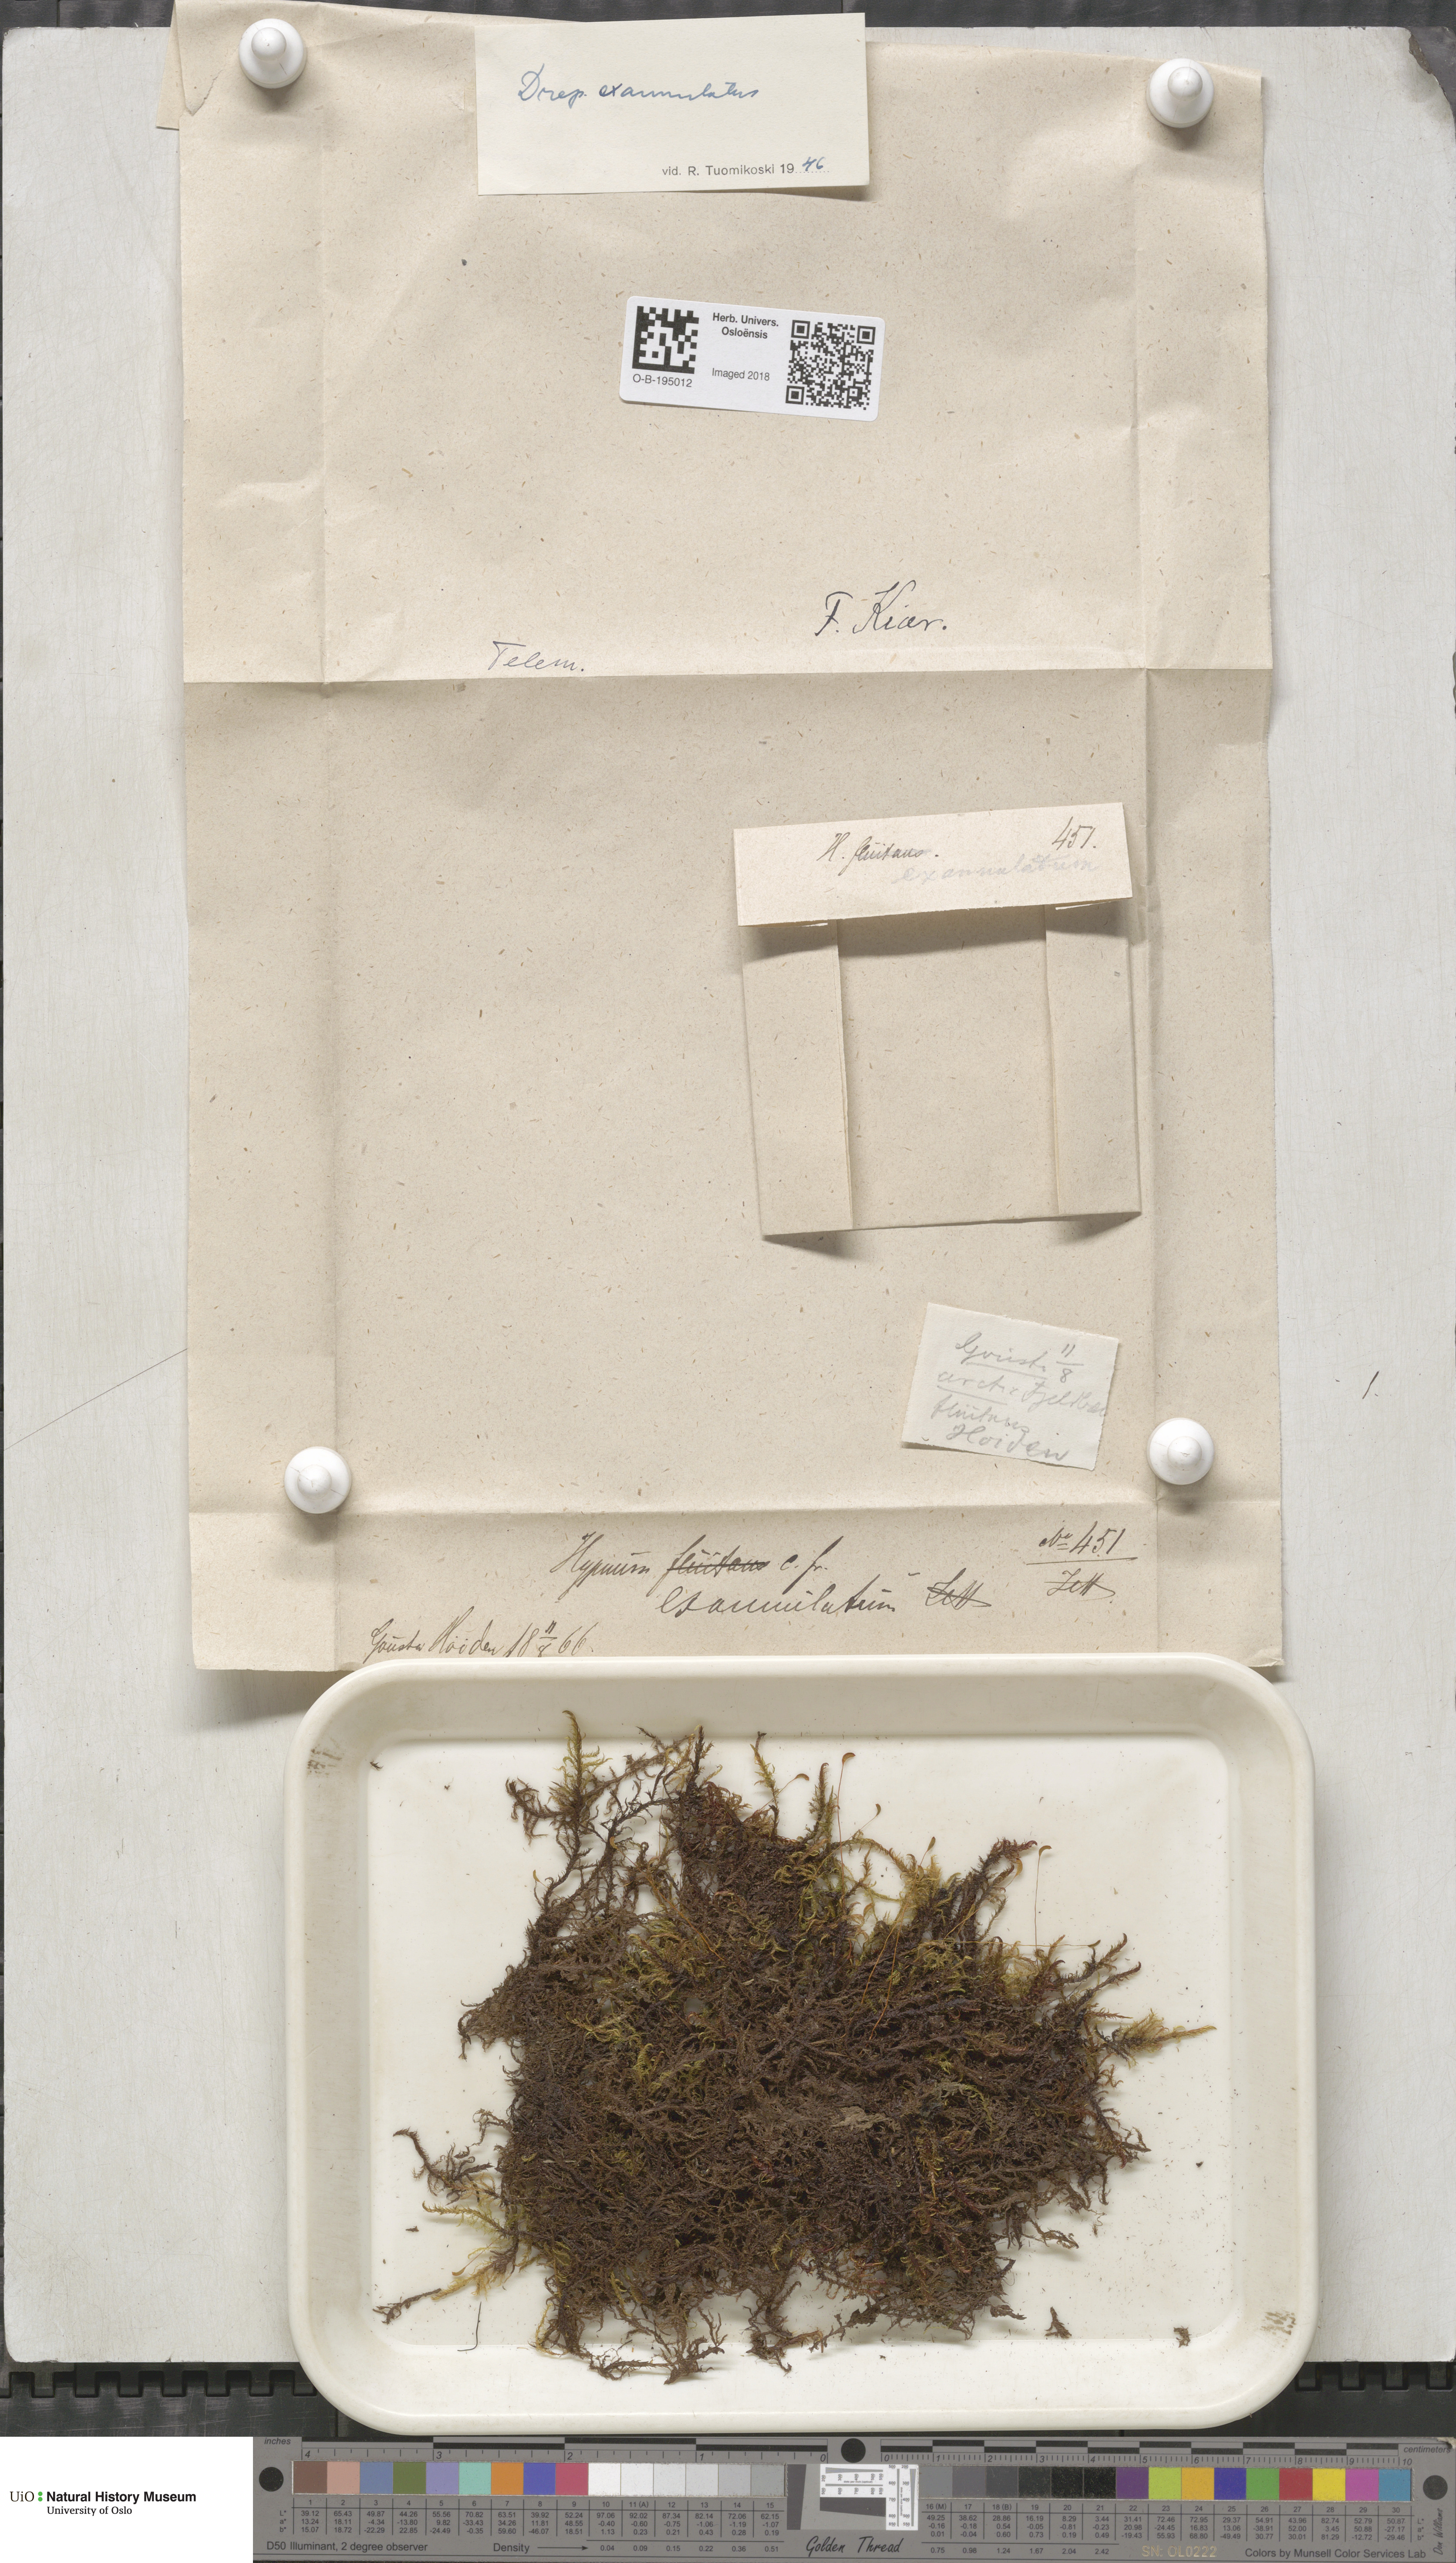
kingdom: Plantae
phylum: Bryophyta
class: Bryopsida
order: Hypnales
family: Calliergonaceae
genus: Sarmentypnum
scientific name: Sarmentypnum exannulatum
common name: Ringless spoon moss
